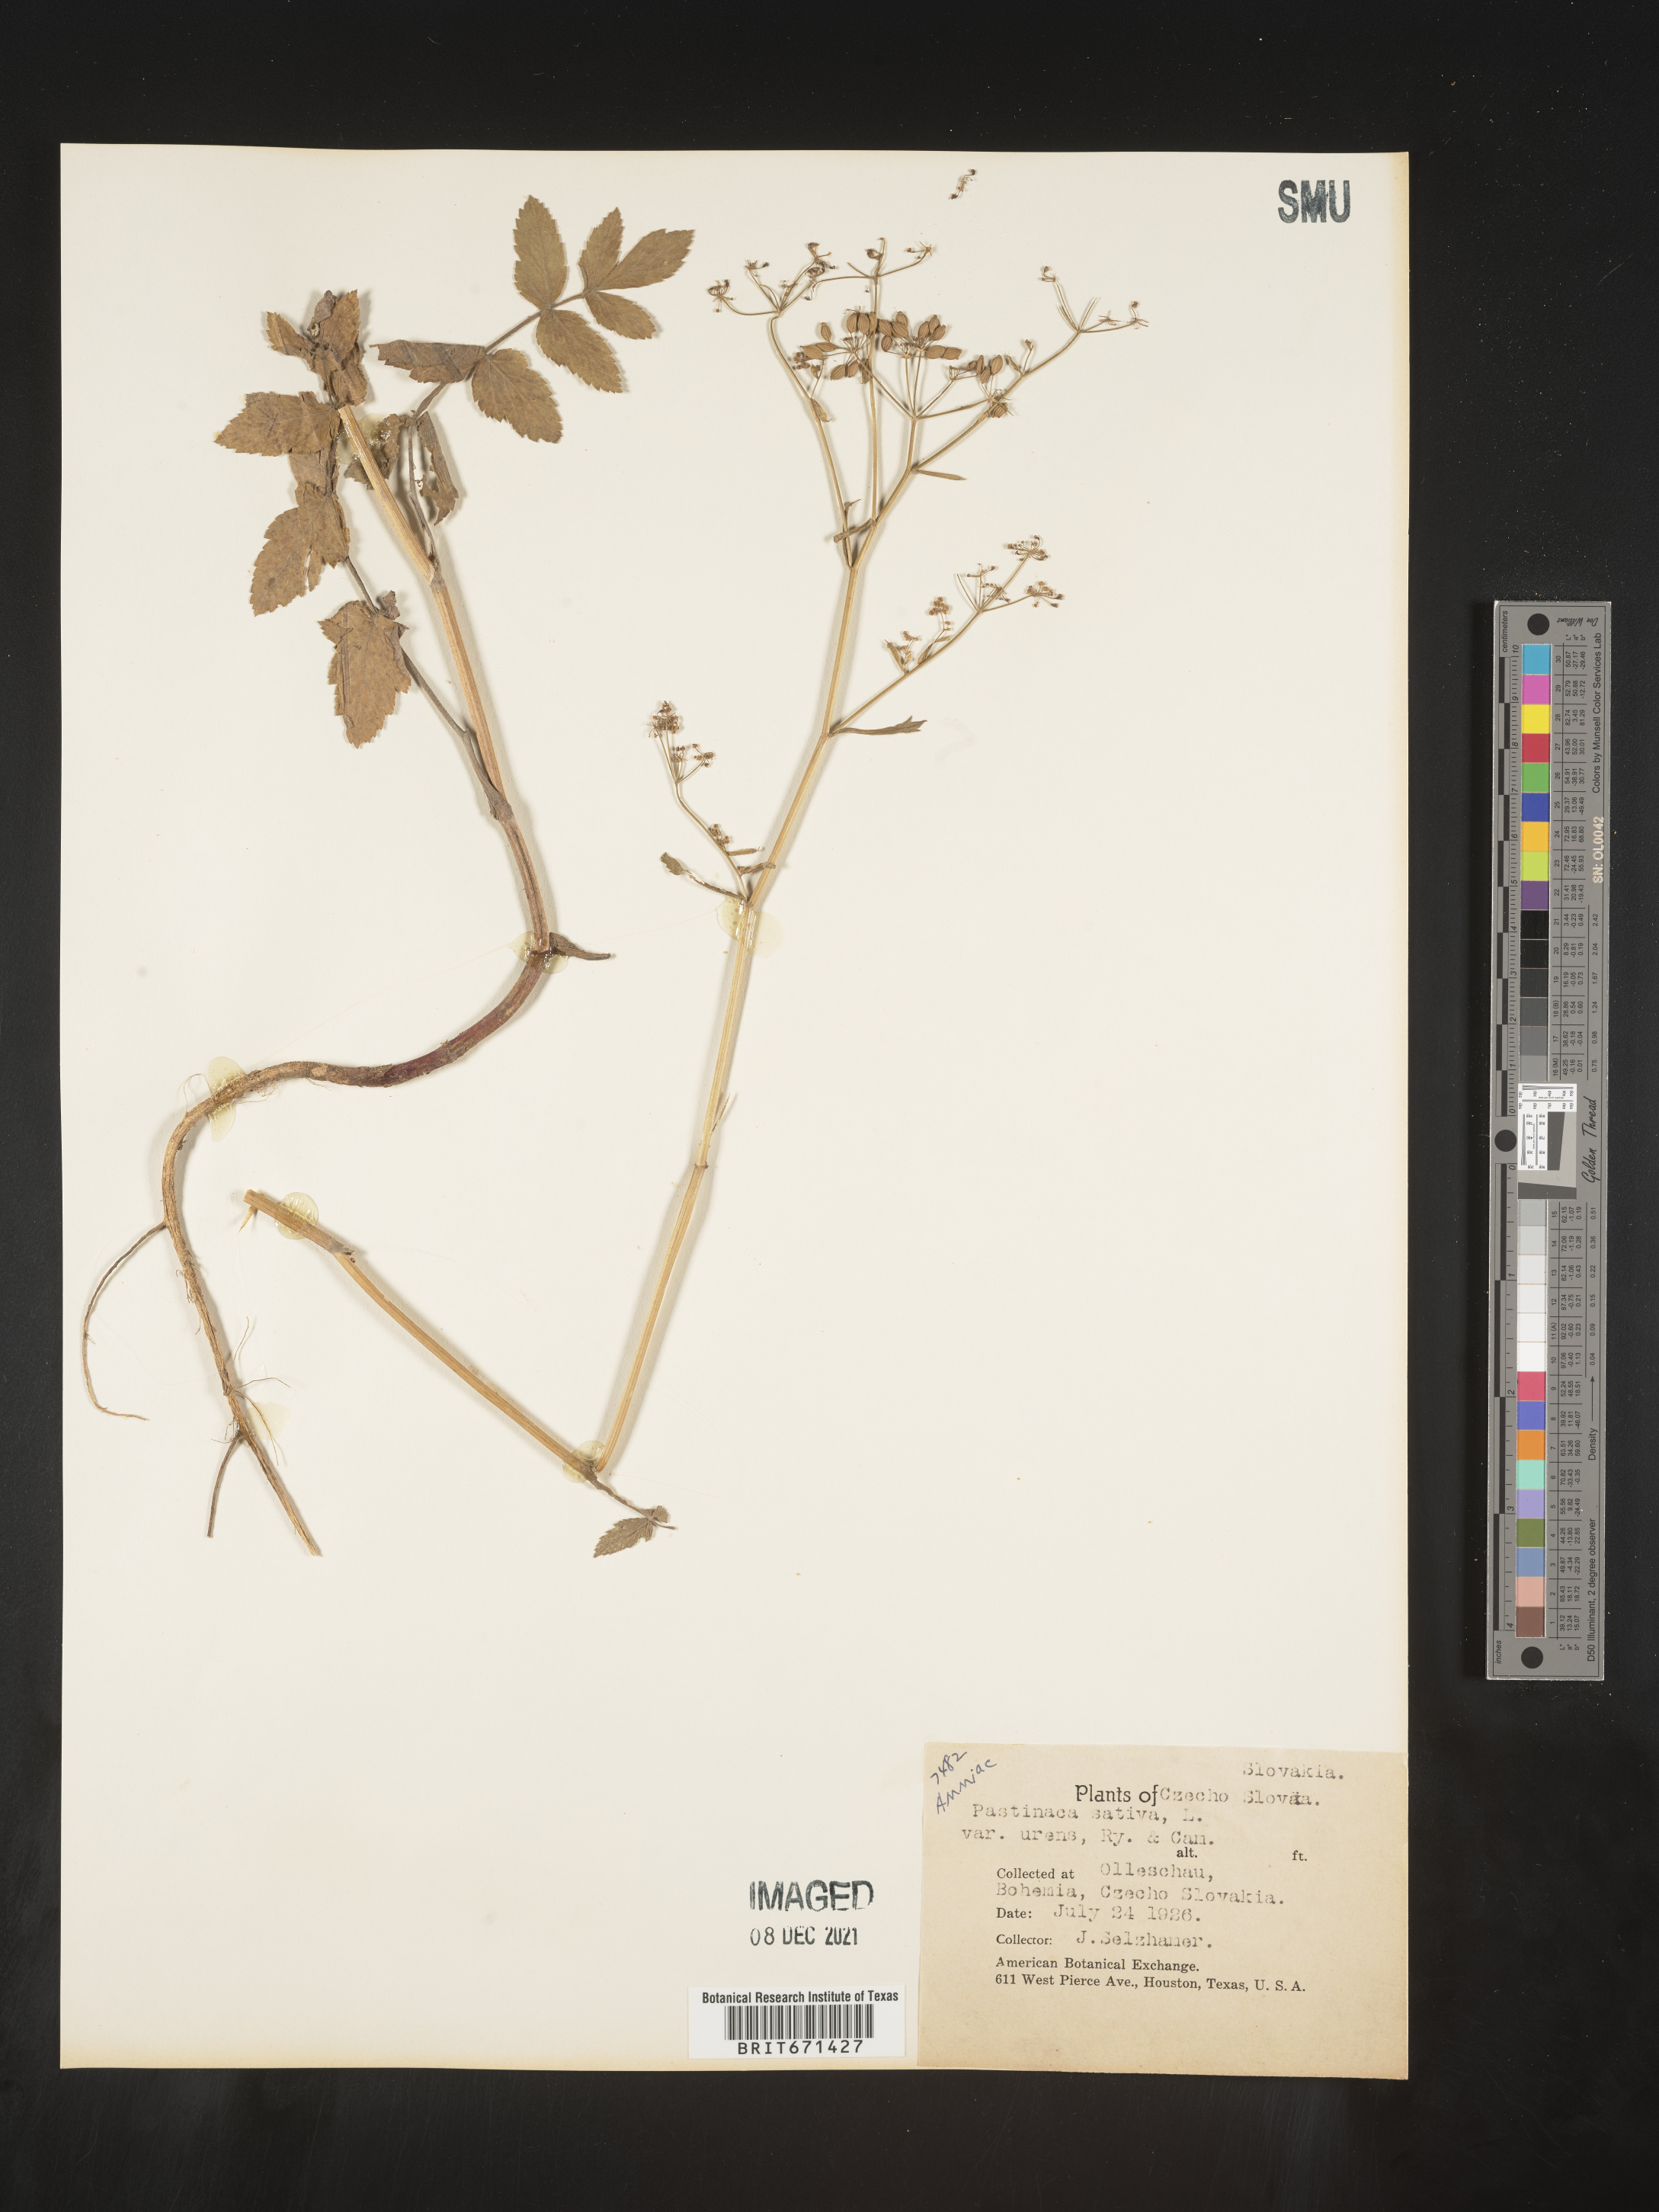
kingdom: Plantae
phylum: Tracheophyta
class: Magnoliopsida
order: Apiales
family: Apiaceae
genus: Pastinaca
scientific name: Pastinaca
